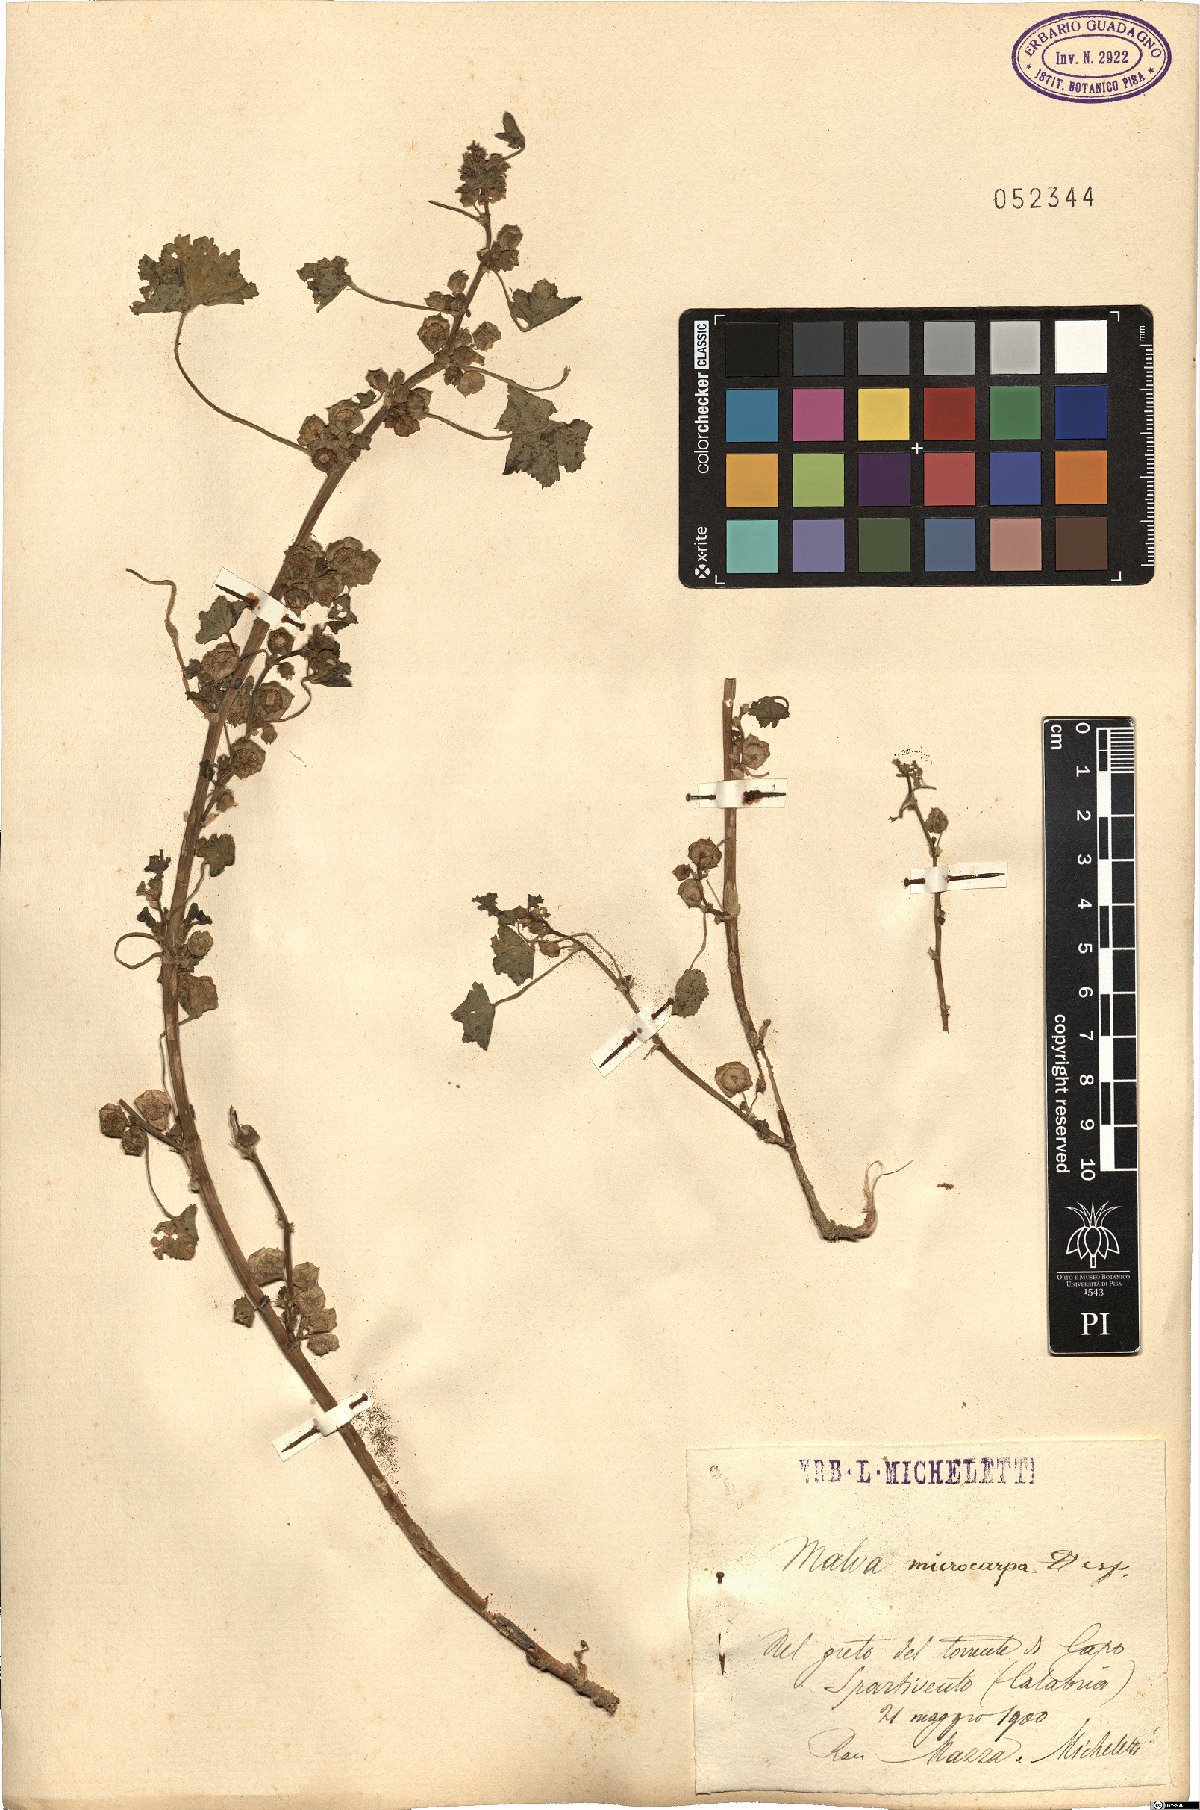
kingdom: Plantae
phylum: Tracheophyta
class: Magnoliopsida
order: Malvales
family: Malvaceae
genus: Malva
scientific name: Malva parviflora
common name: Least mallow
